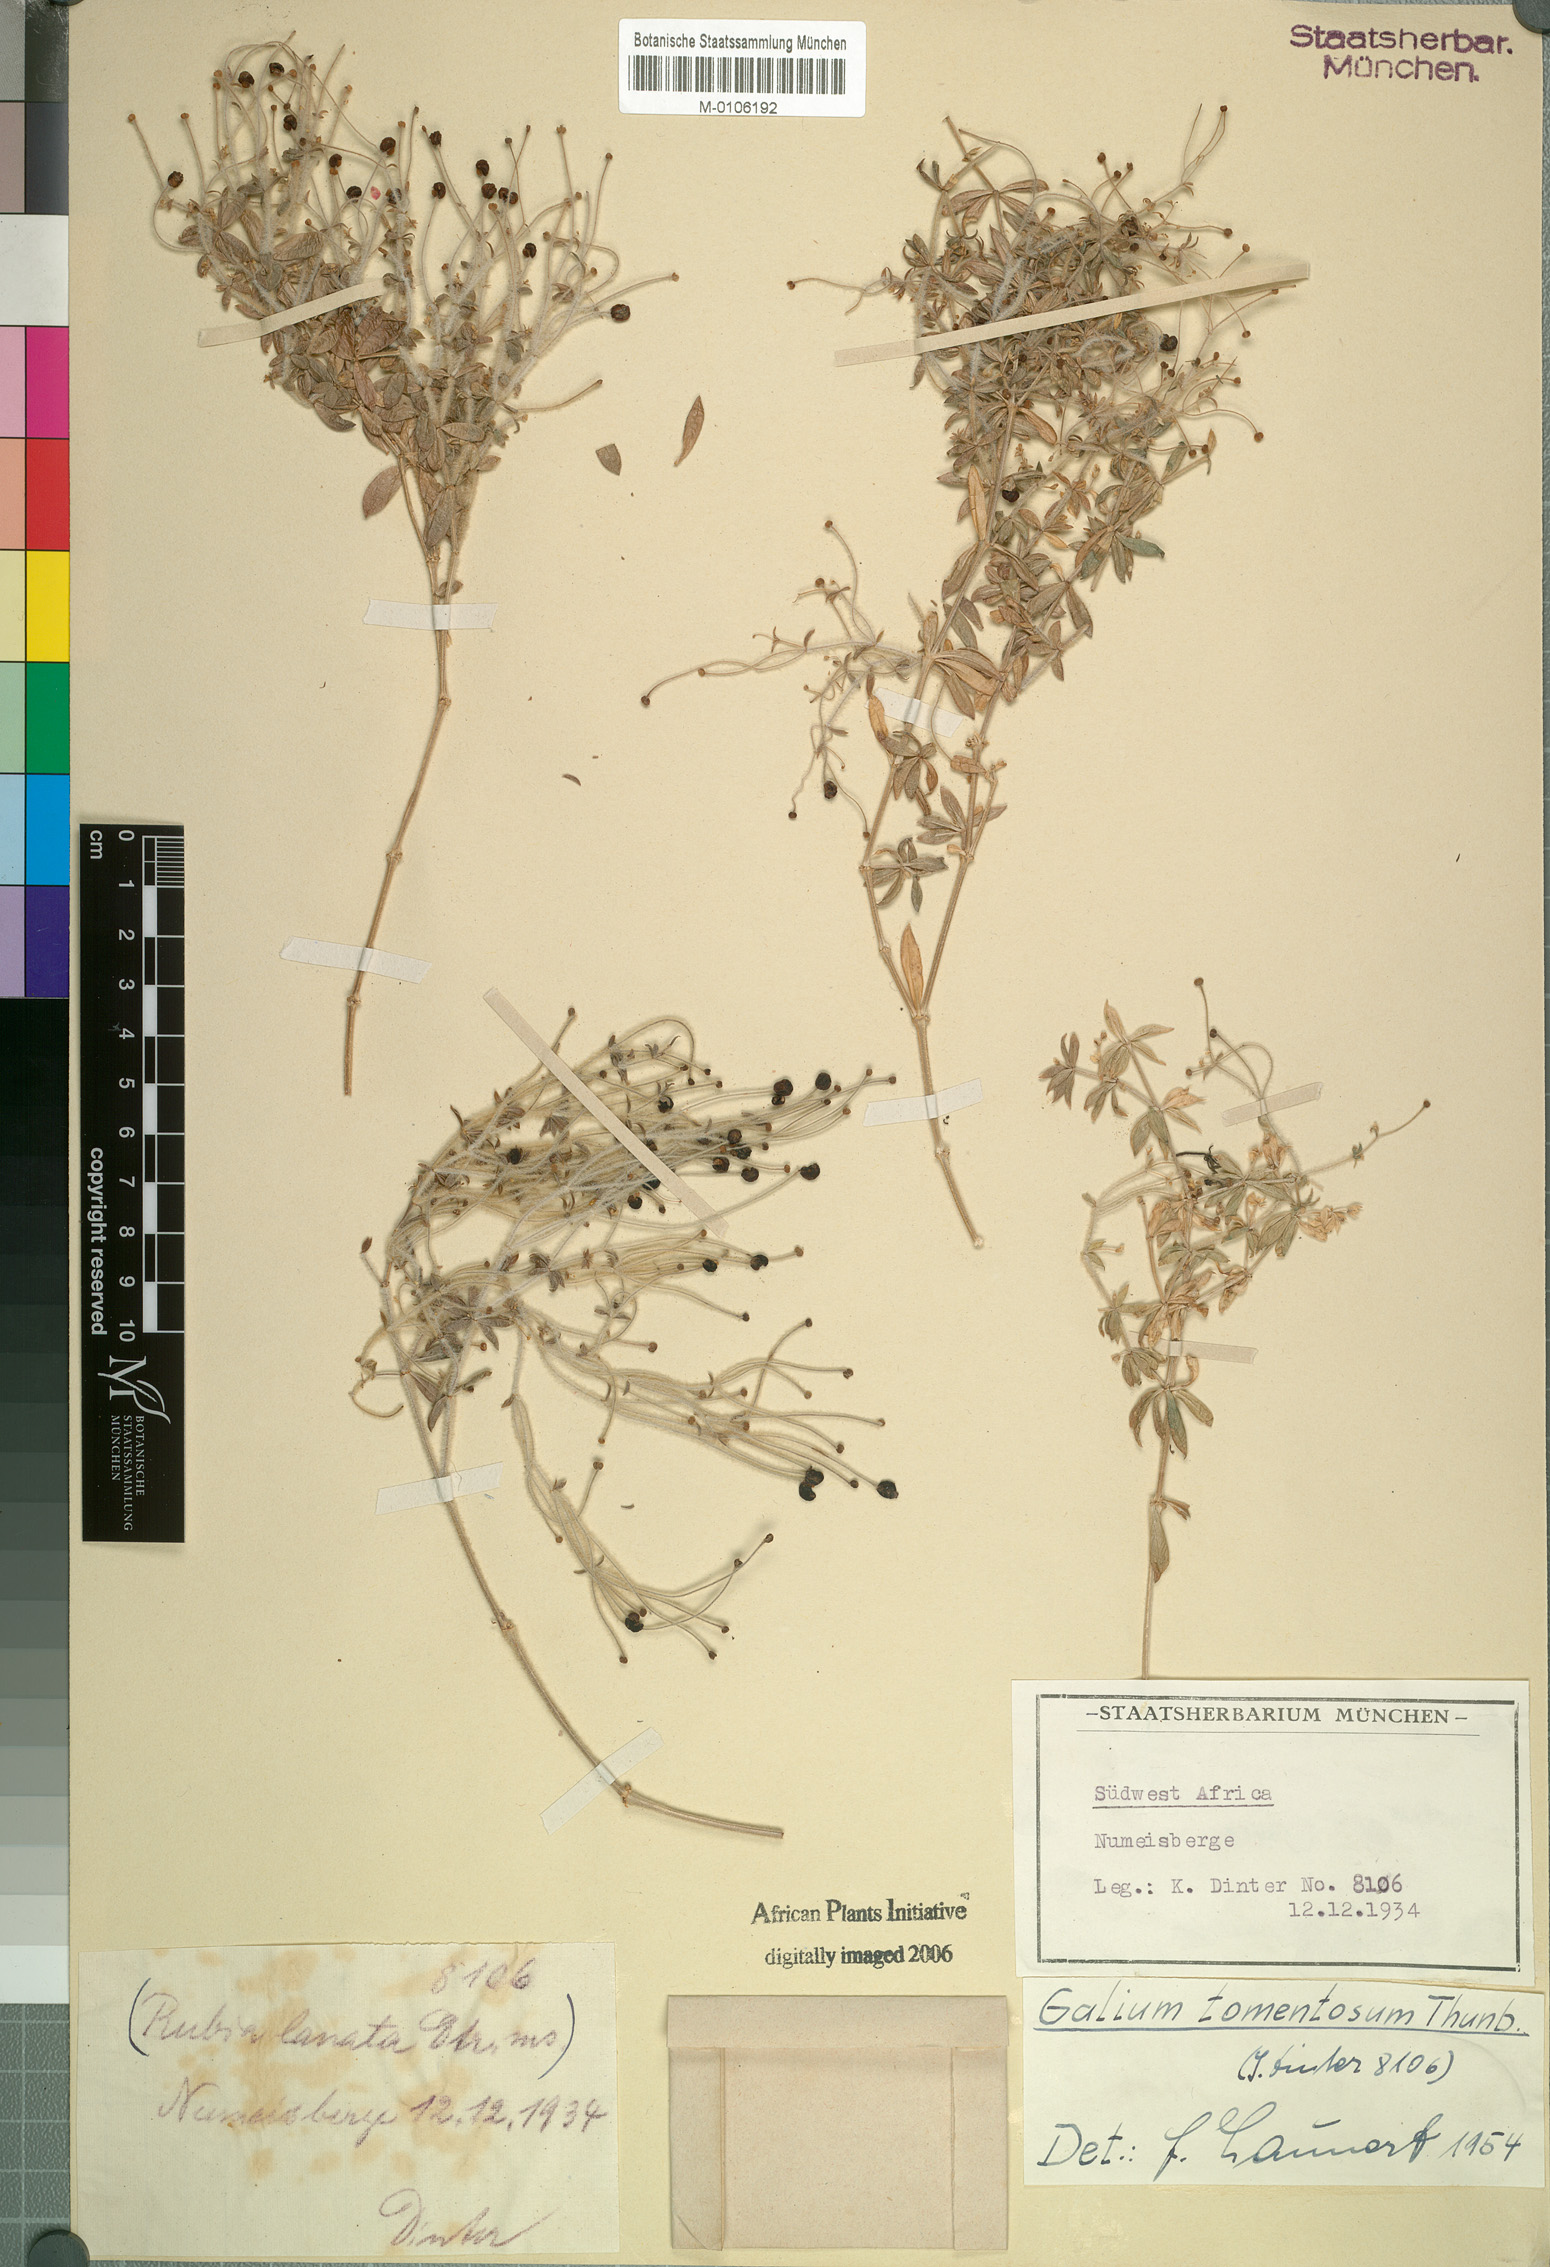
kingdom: Plantae
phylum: Tracheophyta
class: Magnoliopsida
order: Gentianales
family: Rubiaceae
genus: Galium
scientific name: Galium tomentosum
